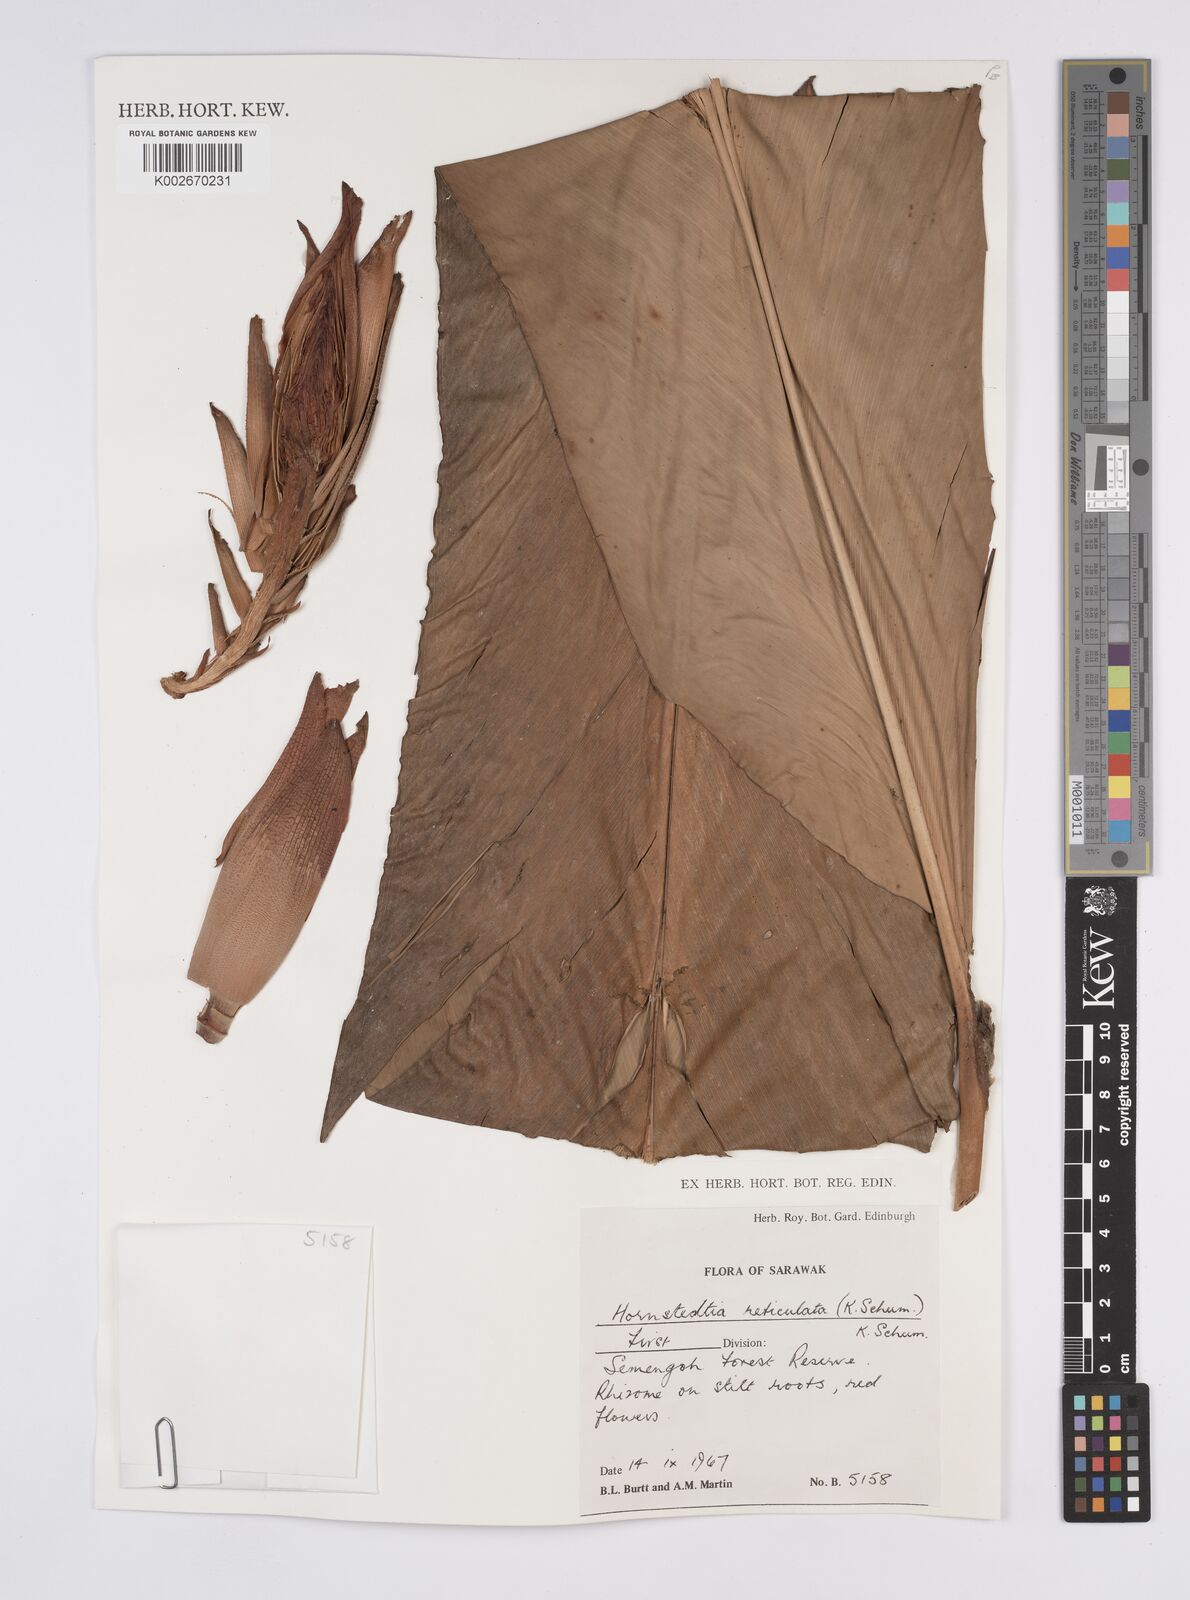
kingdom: Plantae
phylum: Tracheophyta
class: Liliopsida
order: Zingiberales
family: Zingiberaceae
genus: Hornstedtia
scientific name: Hornstedtia reticulata
